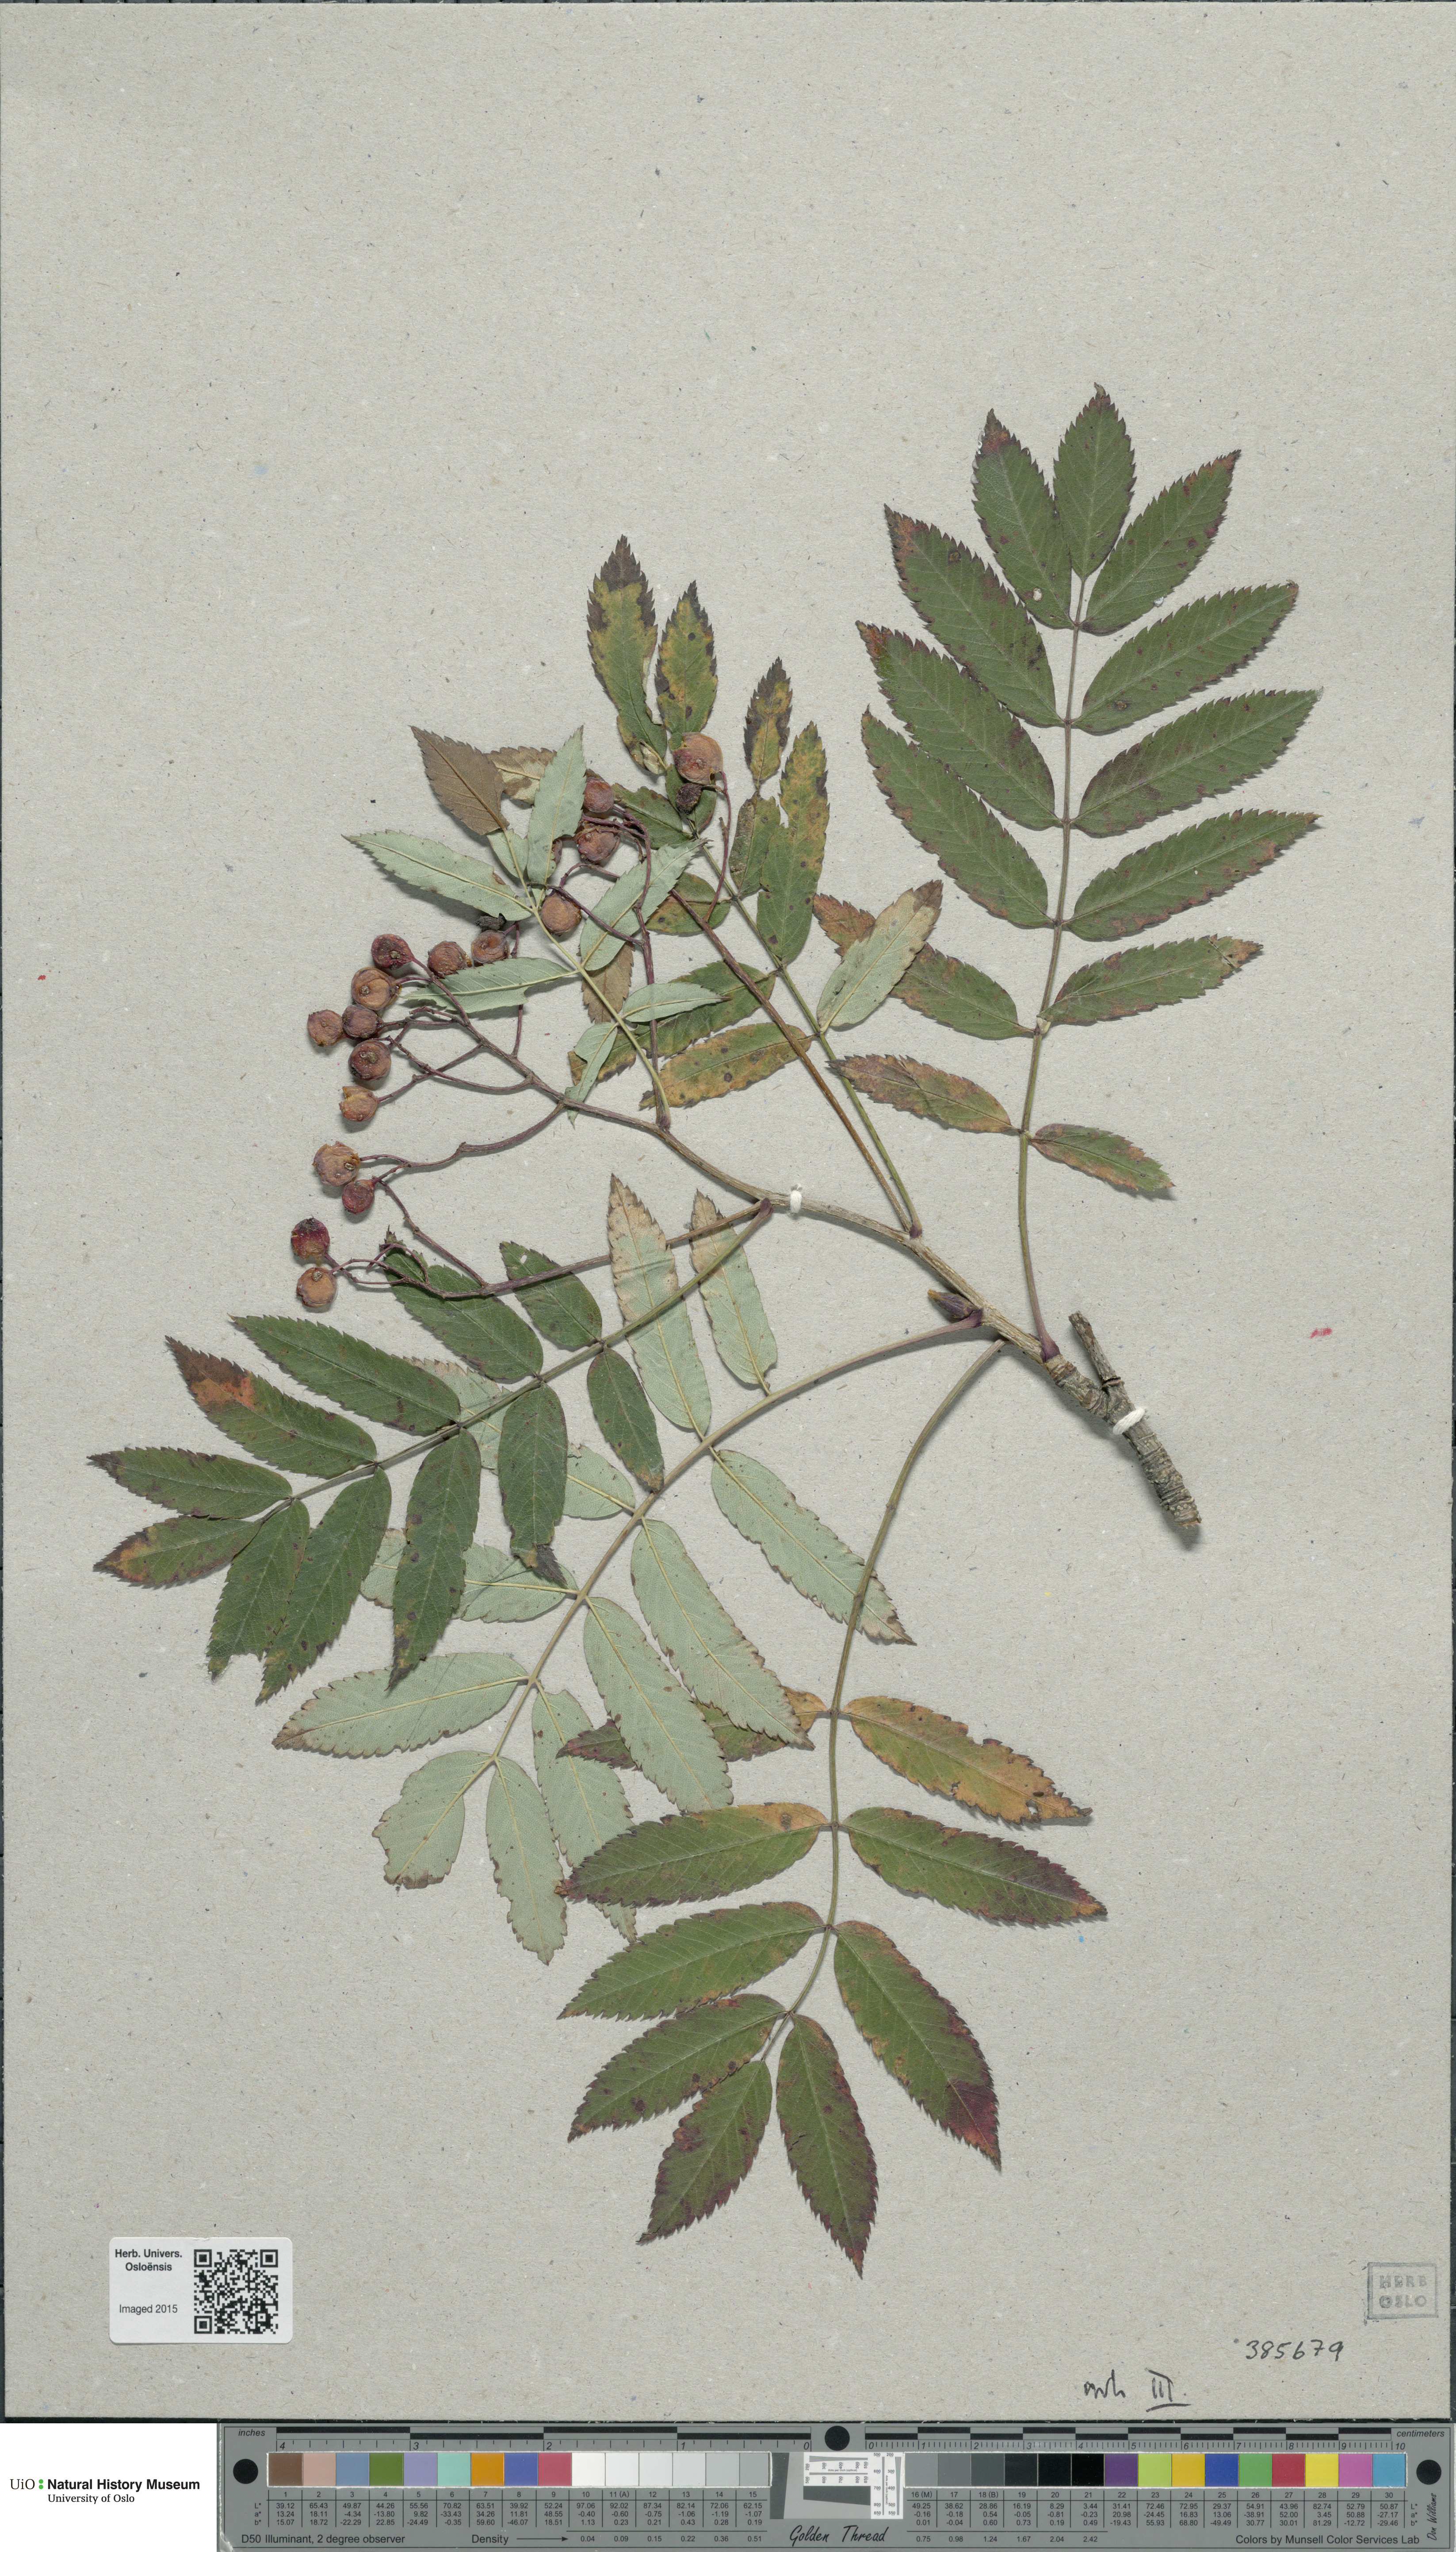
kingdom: Plantae
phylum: Tracheophyta
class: Magnoliopsida
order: Rosales
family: Rosaceae
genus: Sorbus
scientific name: Sorbus commixta
